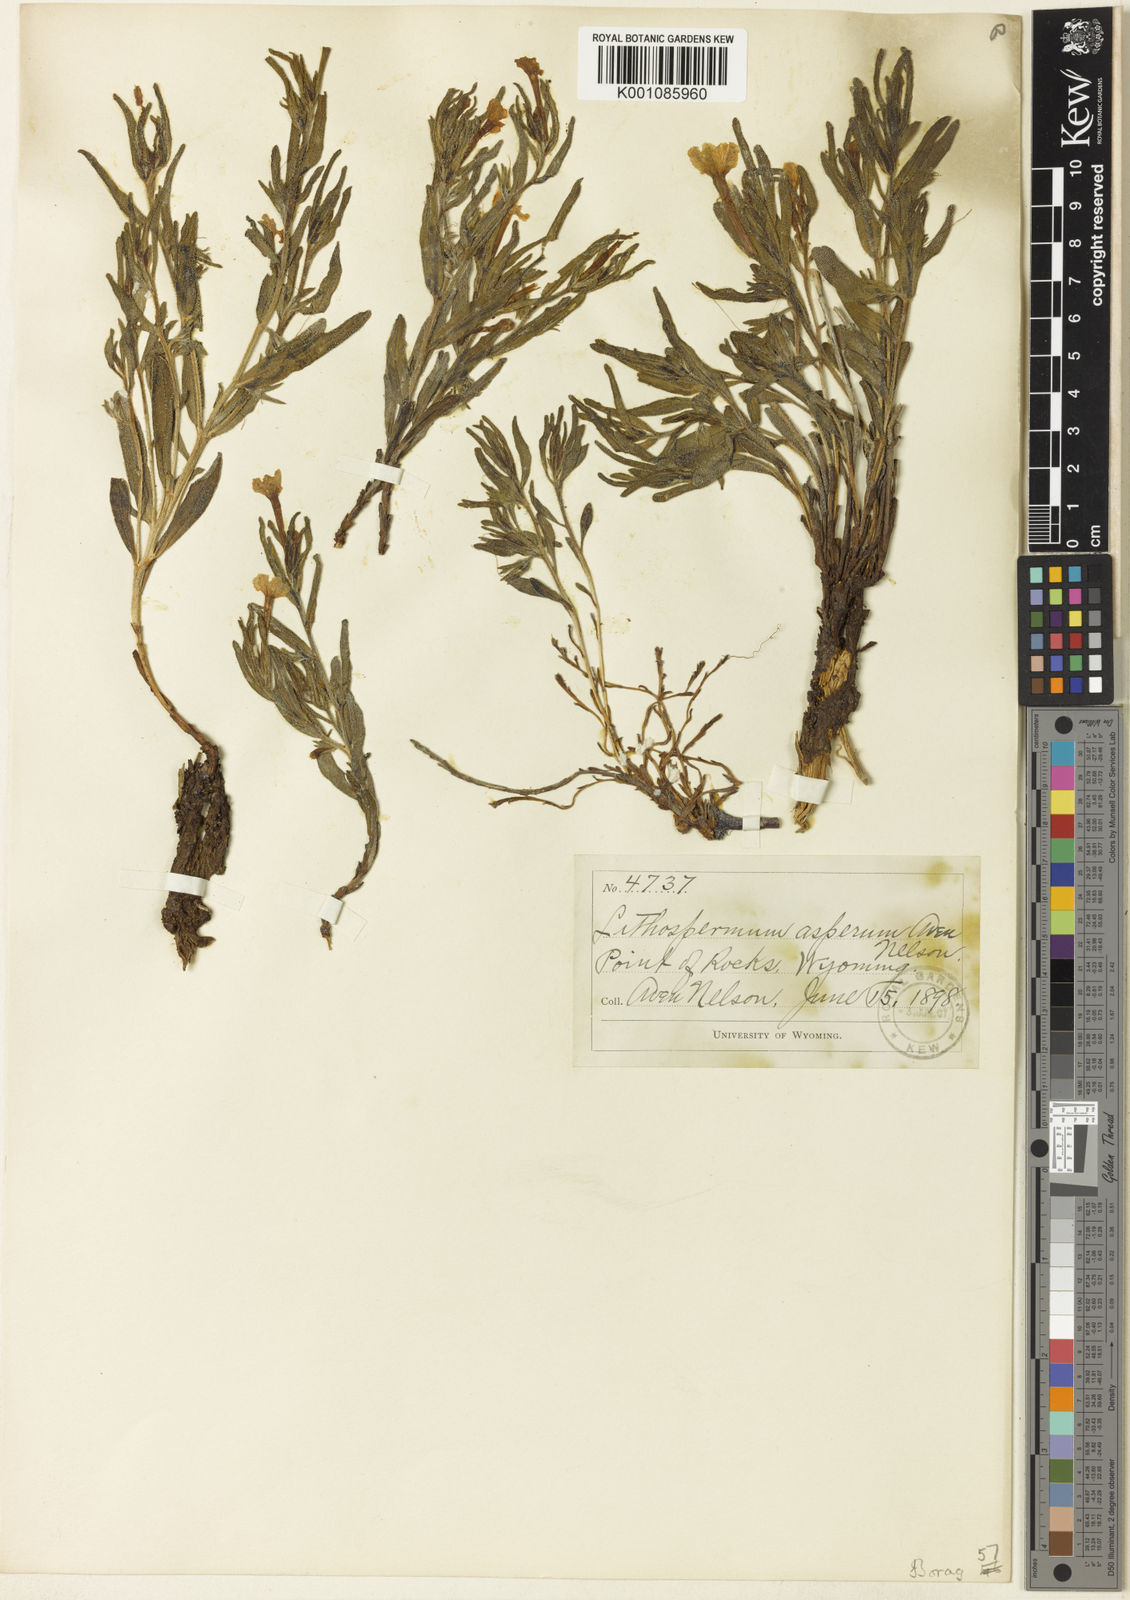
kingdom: Plantae
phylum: Tracheophyta
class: Magnoliopsida
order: Boraginales
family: Boraginaceae
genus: Lithospermum
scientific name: Lithospermum incisum
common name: Fringed gromwell
